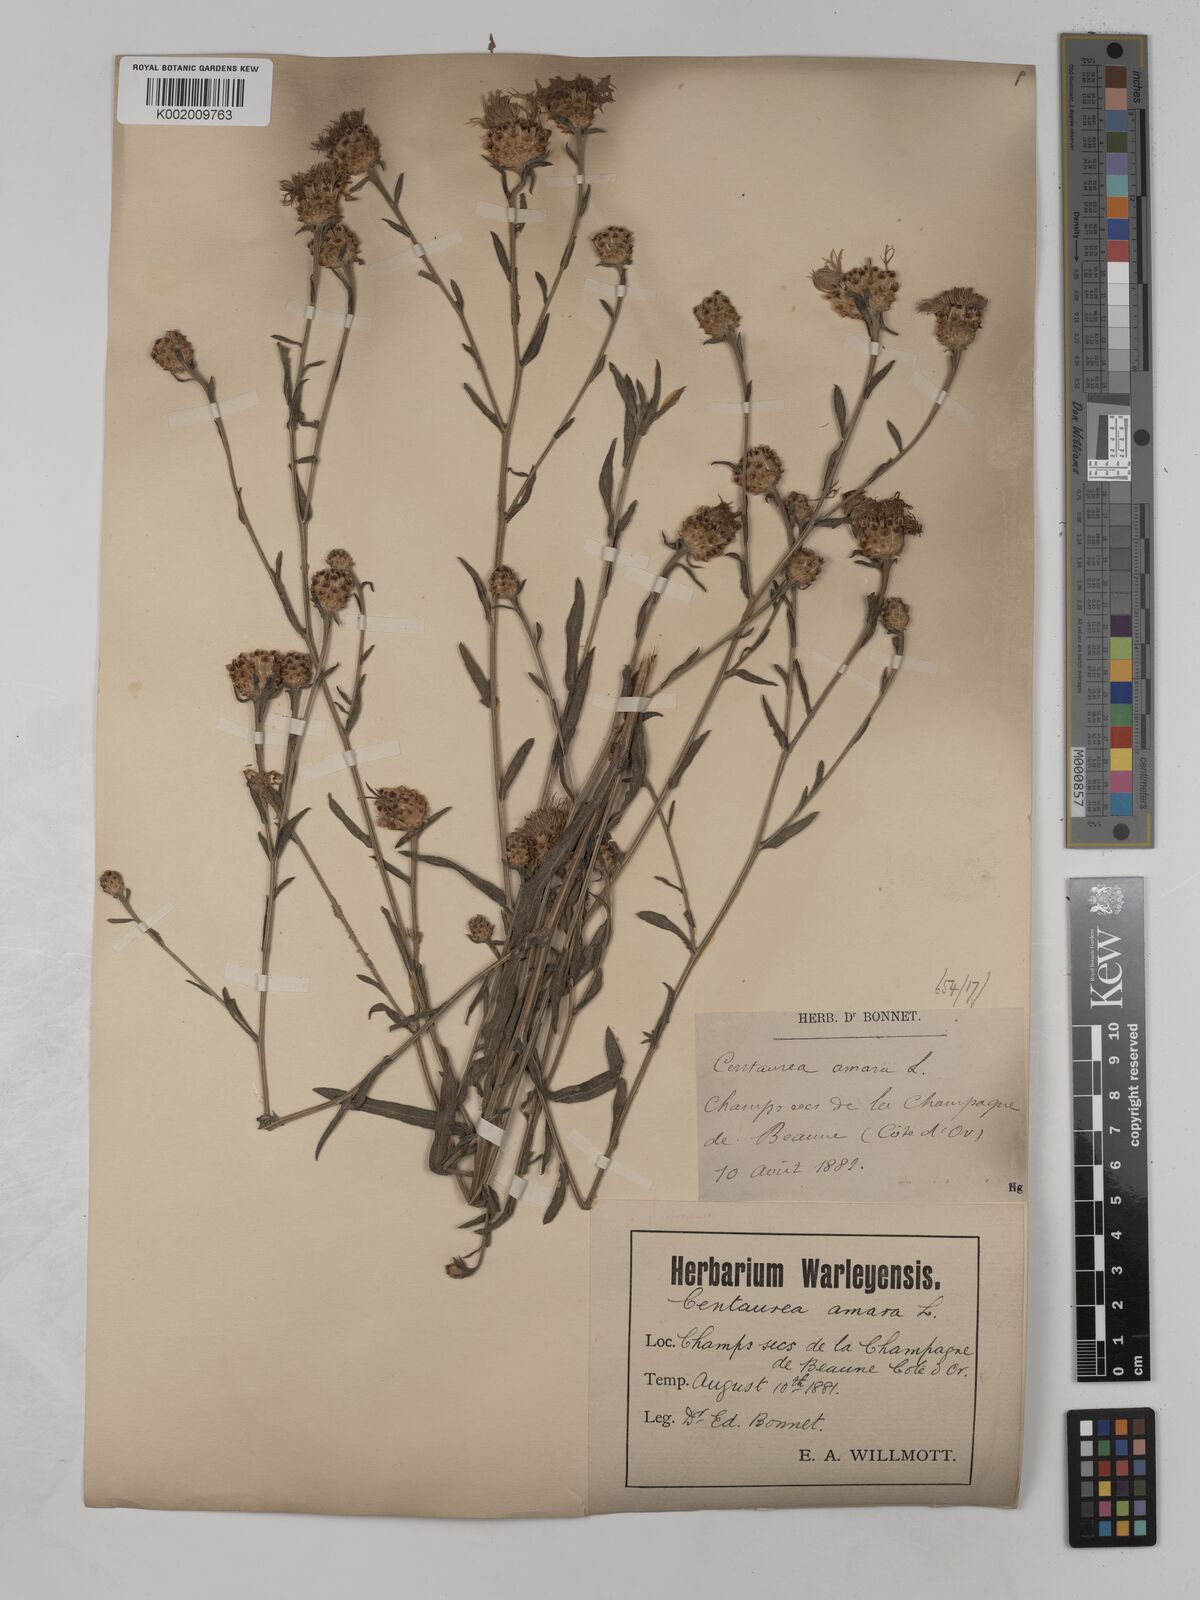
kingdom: Plantae
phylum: Tracheophyta
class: Magnoliopsida
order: Asterales
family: Asteraceae
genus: Centaurea
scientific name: Centaurea timbalii
